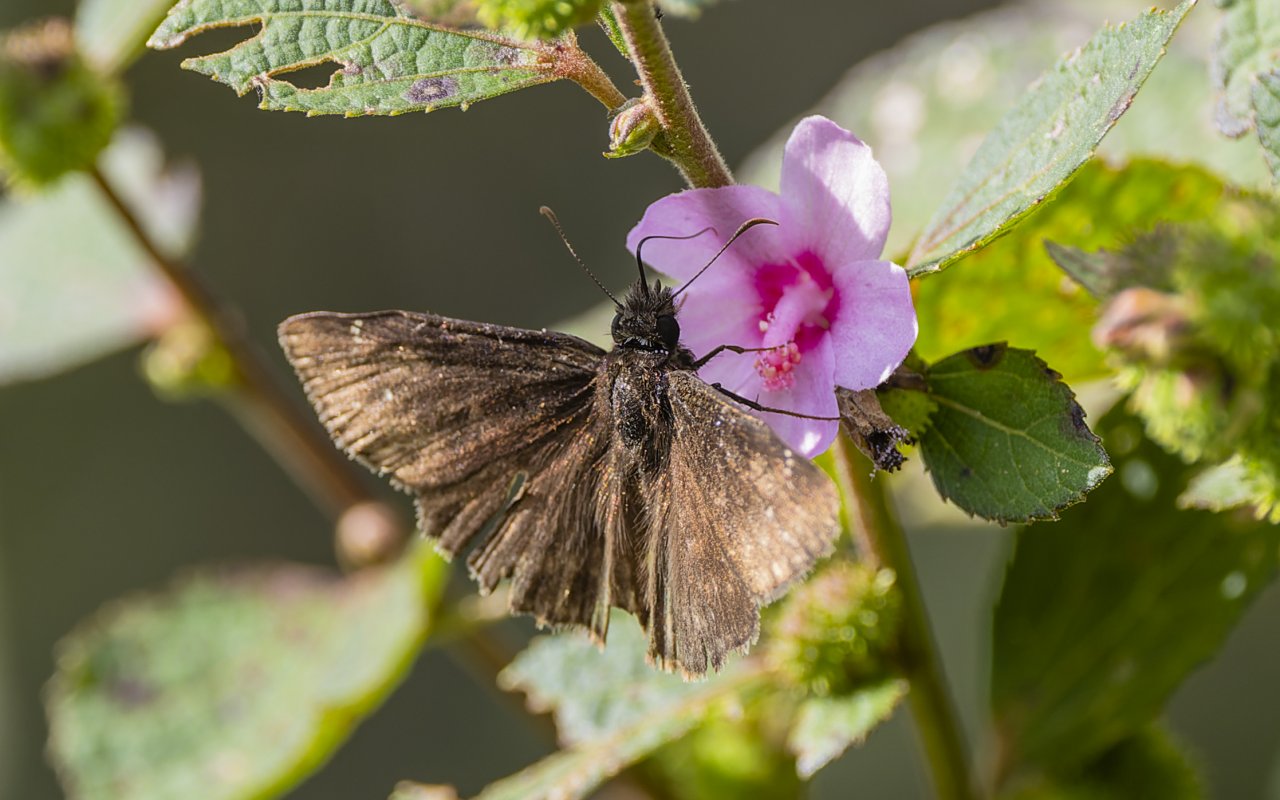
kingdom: Animalia
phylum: Arthropoda
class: Insecta
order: Lepidoptera
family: Hesperiidae
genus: Autochton
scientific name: Autochton
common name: Northern Cloudywing
